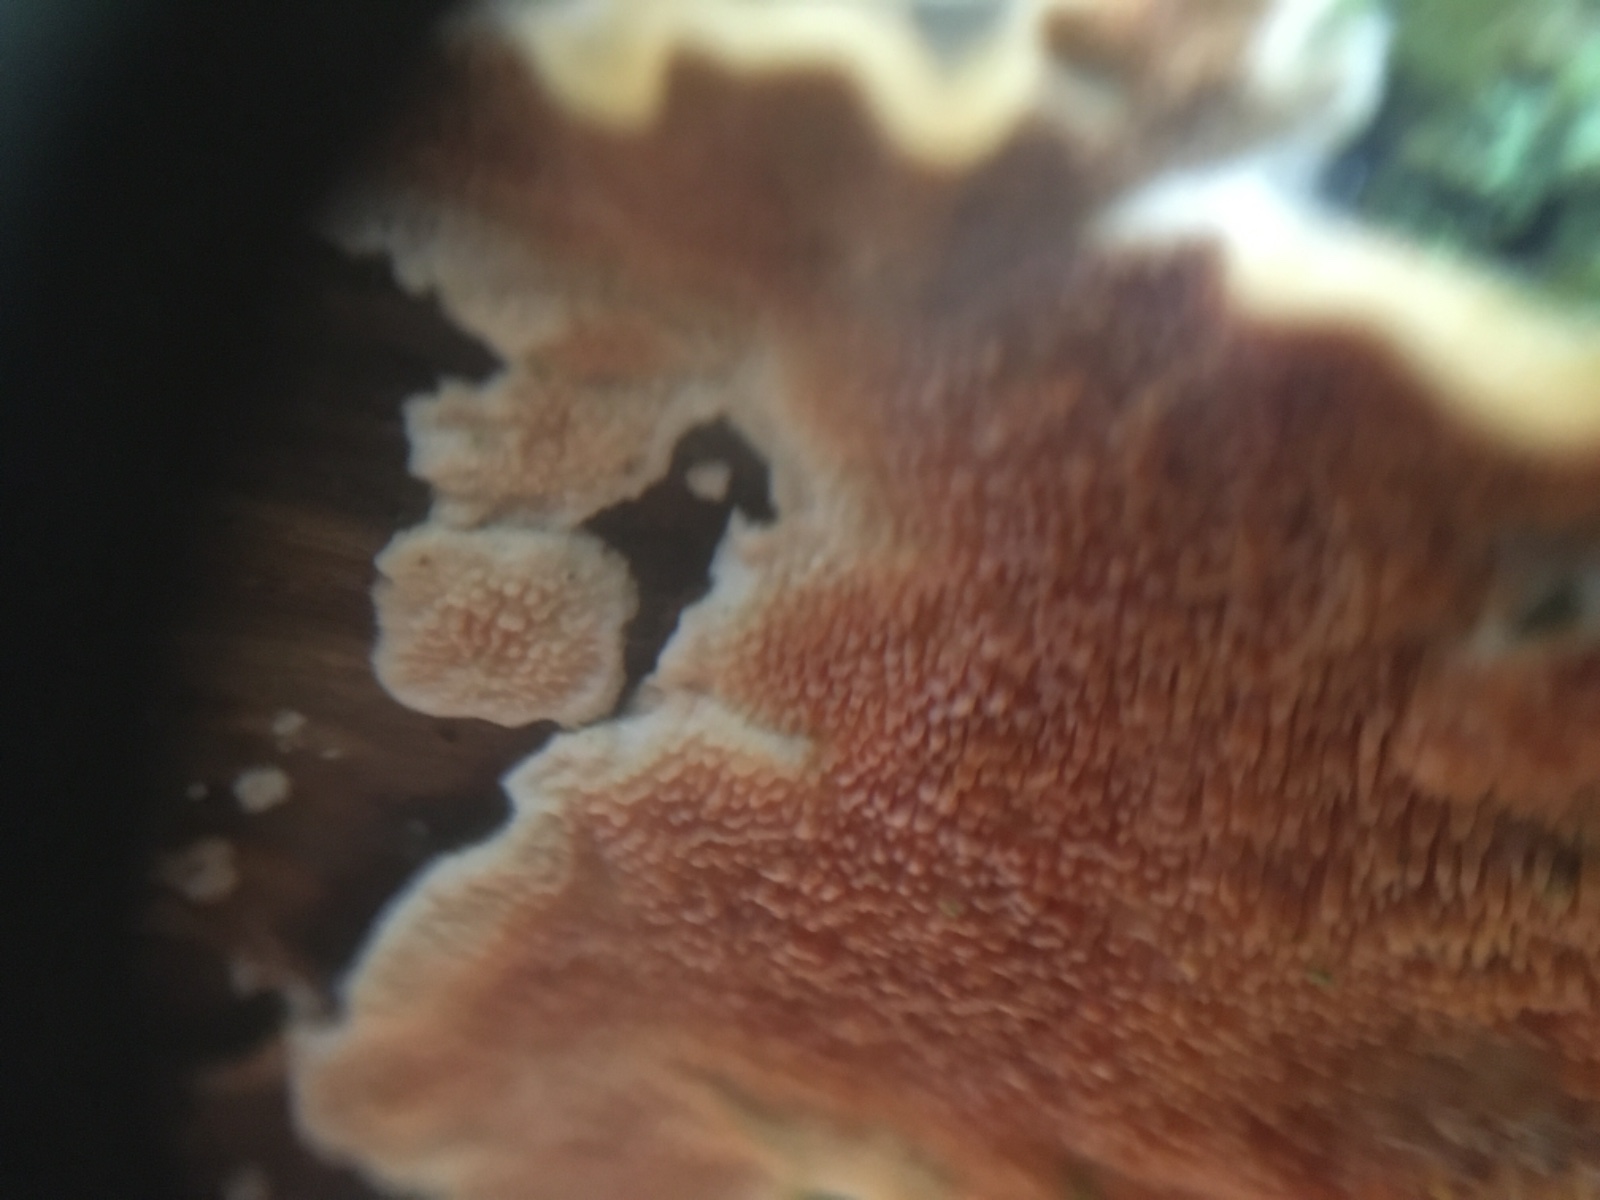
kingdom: Fungi
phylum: Basidiomycota
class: Agaricomycetes
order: Polyporales
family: Steccherinaceae
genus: Steccherinum
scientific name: Steccherinum
